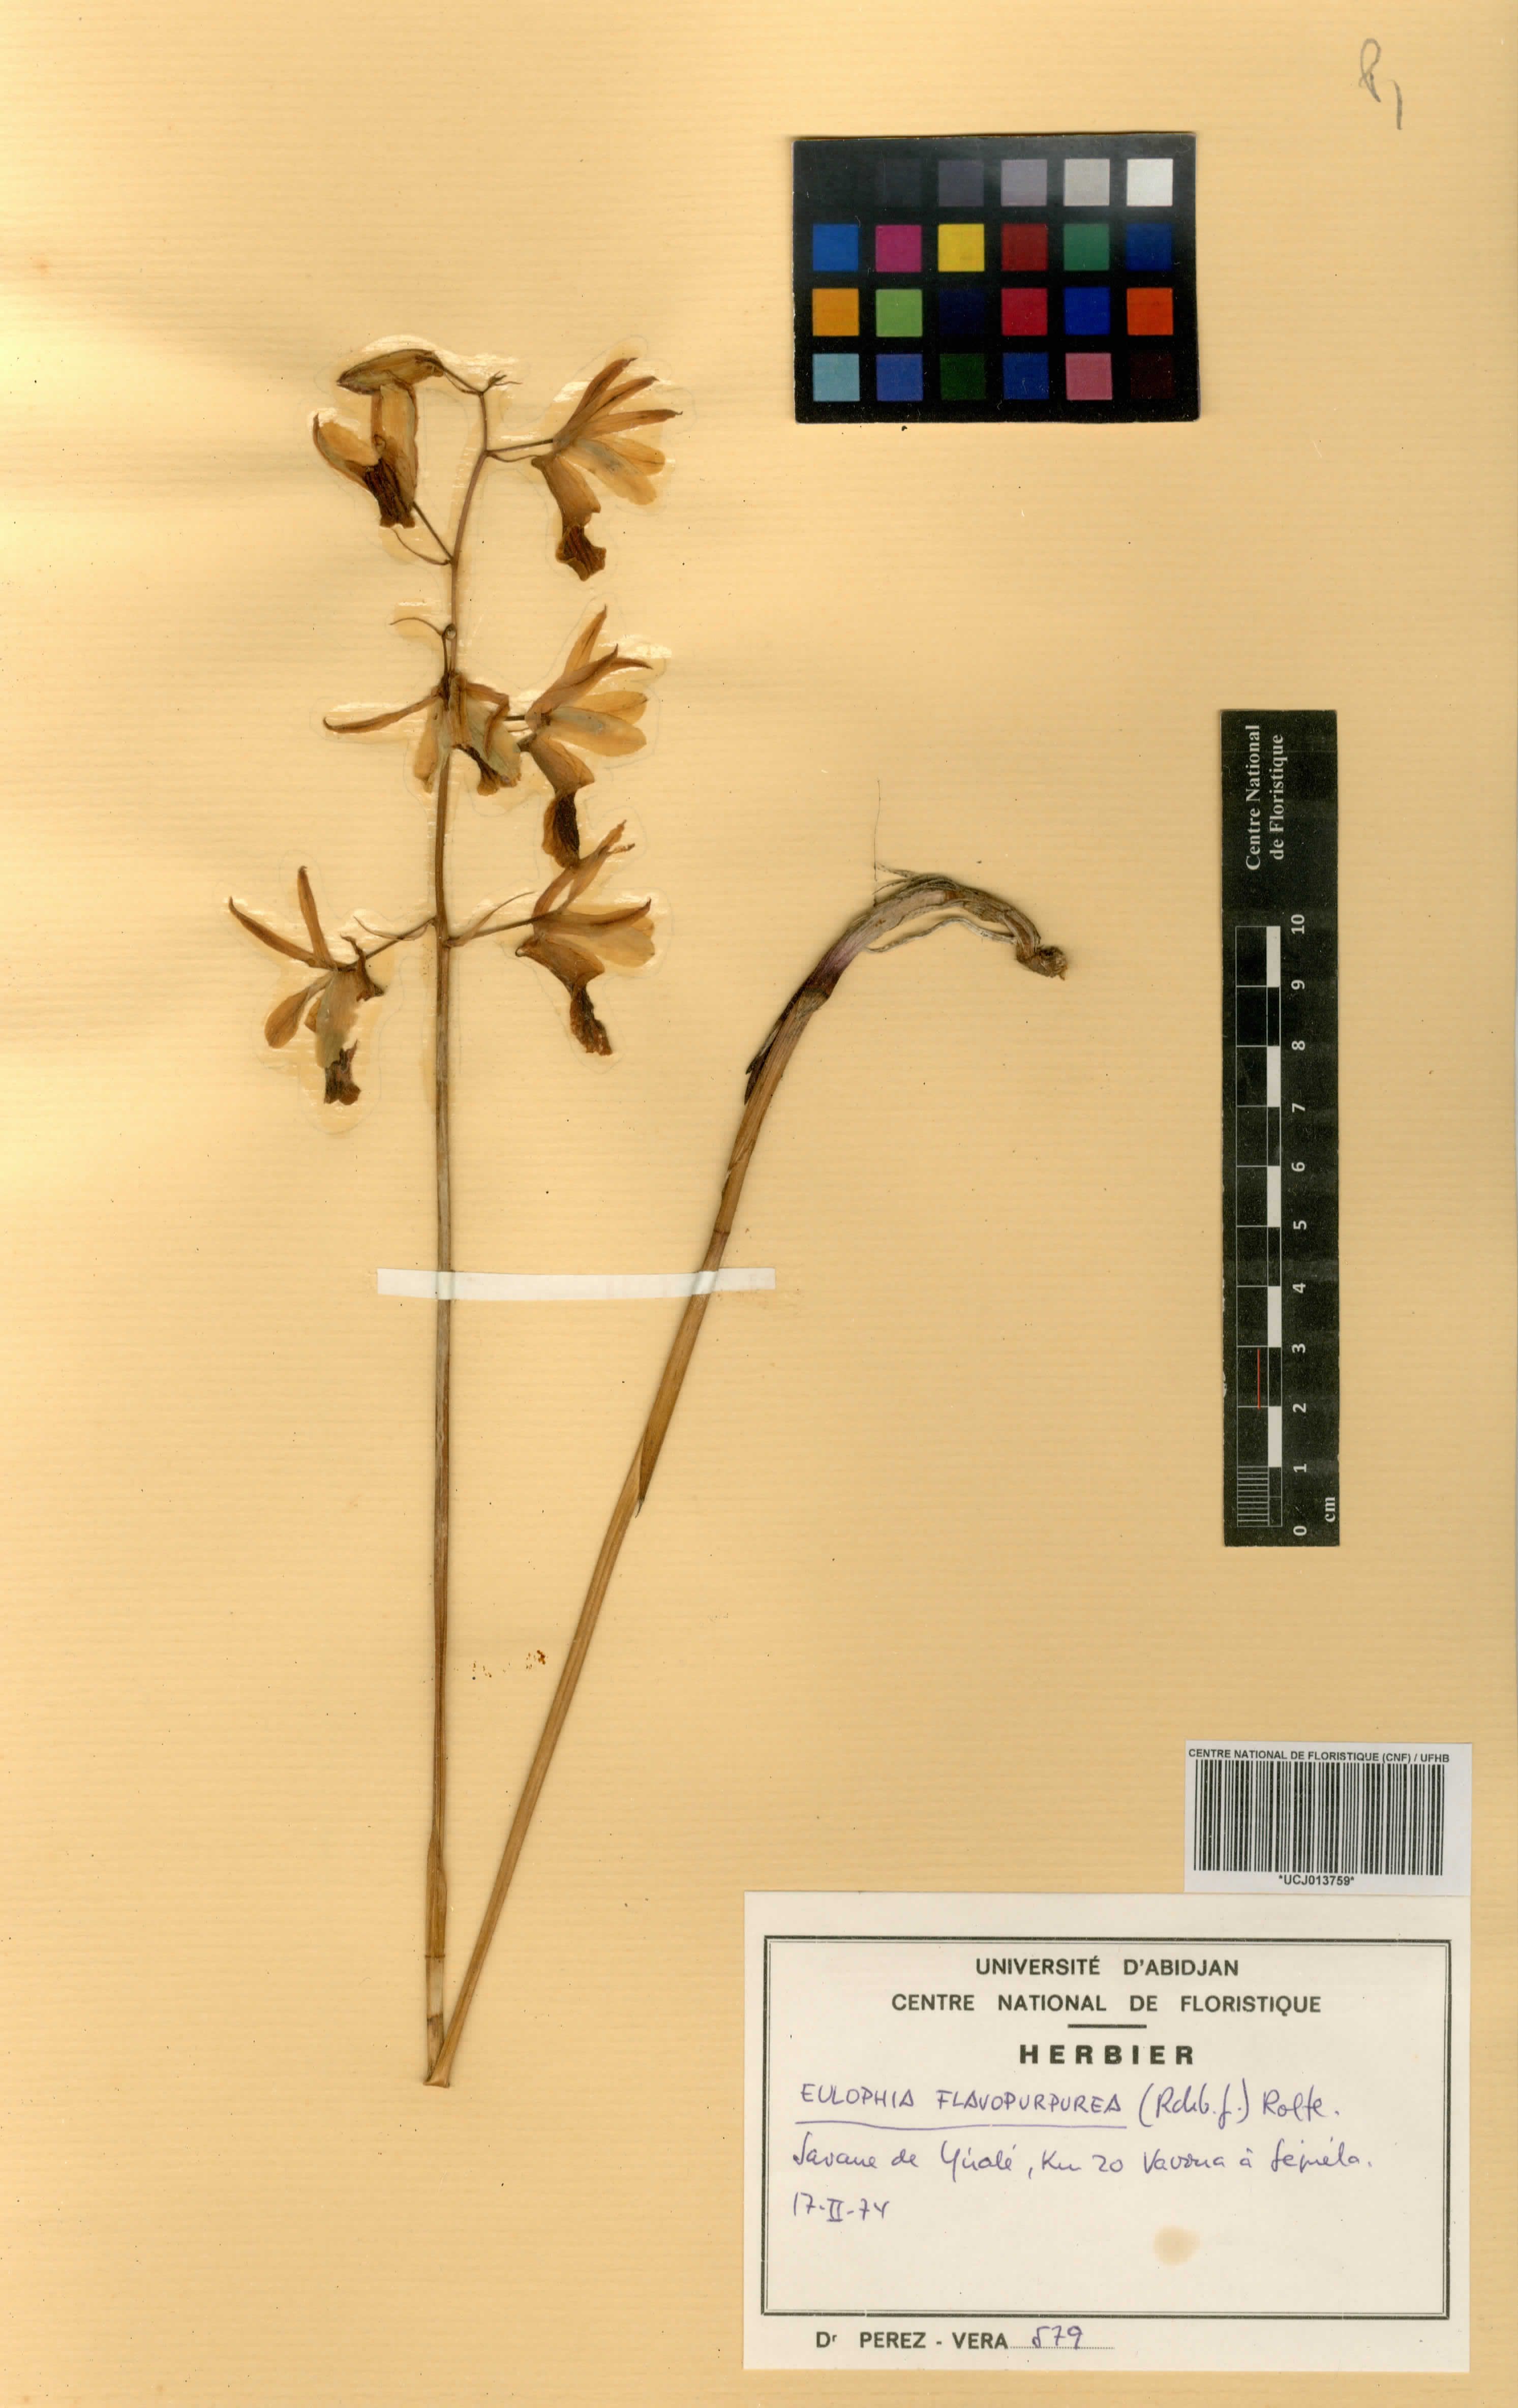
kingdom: Plantae
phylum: Tracheophyta
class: Liliopsida
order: Asparagales
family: Orchidaceae
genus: Eulophia
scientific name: Eulophia flavopurpurea
